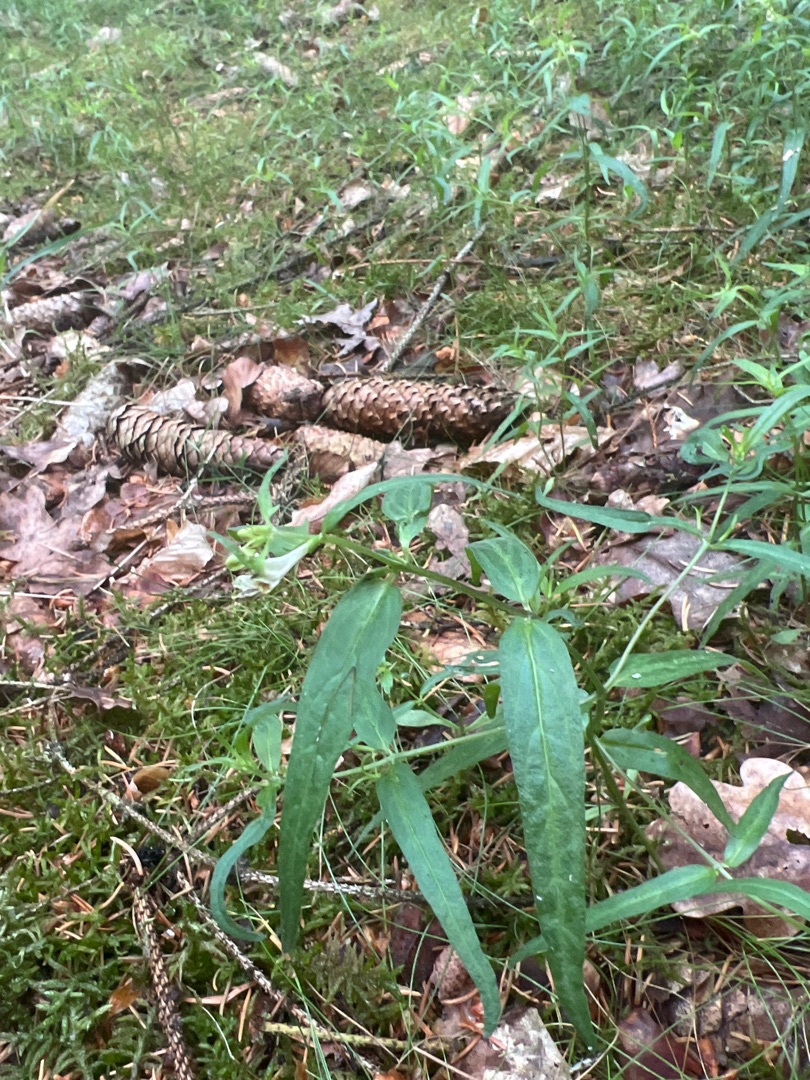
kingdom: Plantae
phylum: Tracheophyta
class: Magnoliopsida
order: Lamiales
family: Orobanchaceae
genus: Melampyrum
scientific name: Melampyrum pratense
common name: Almindelig kohvede
